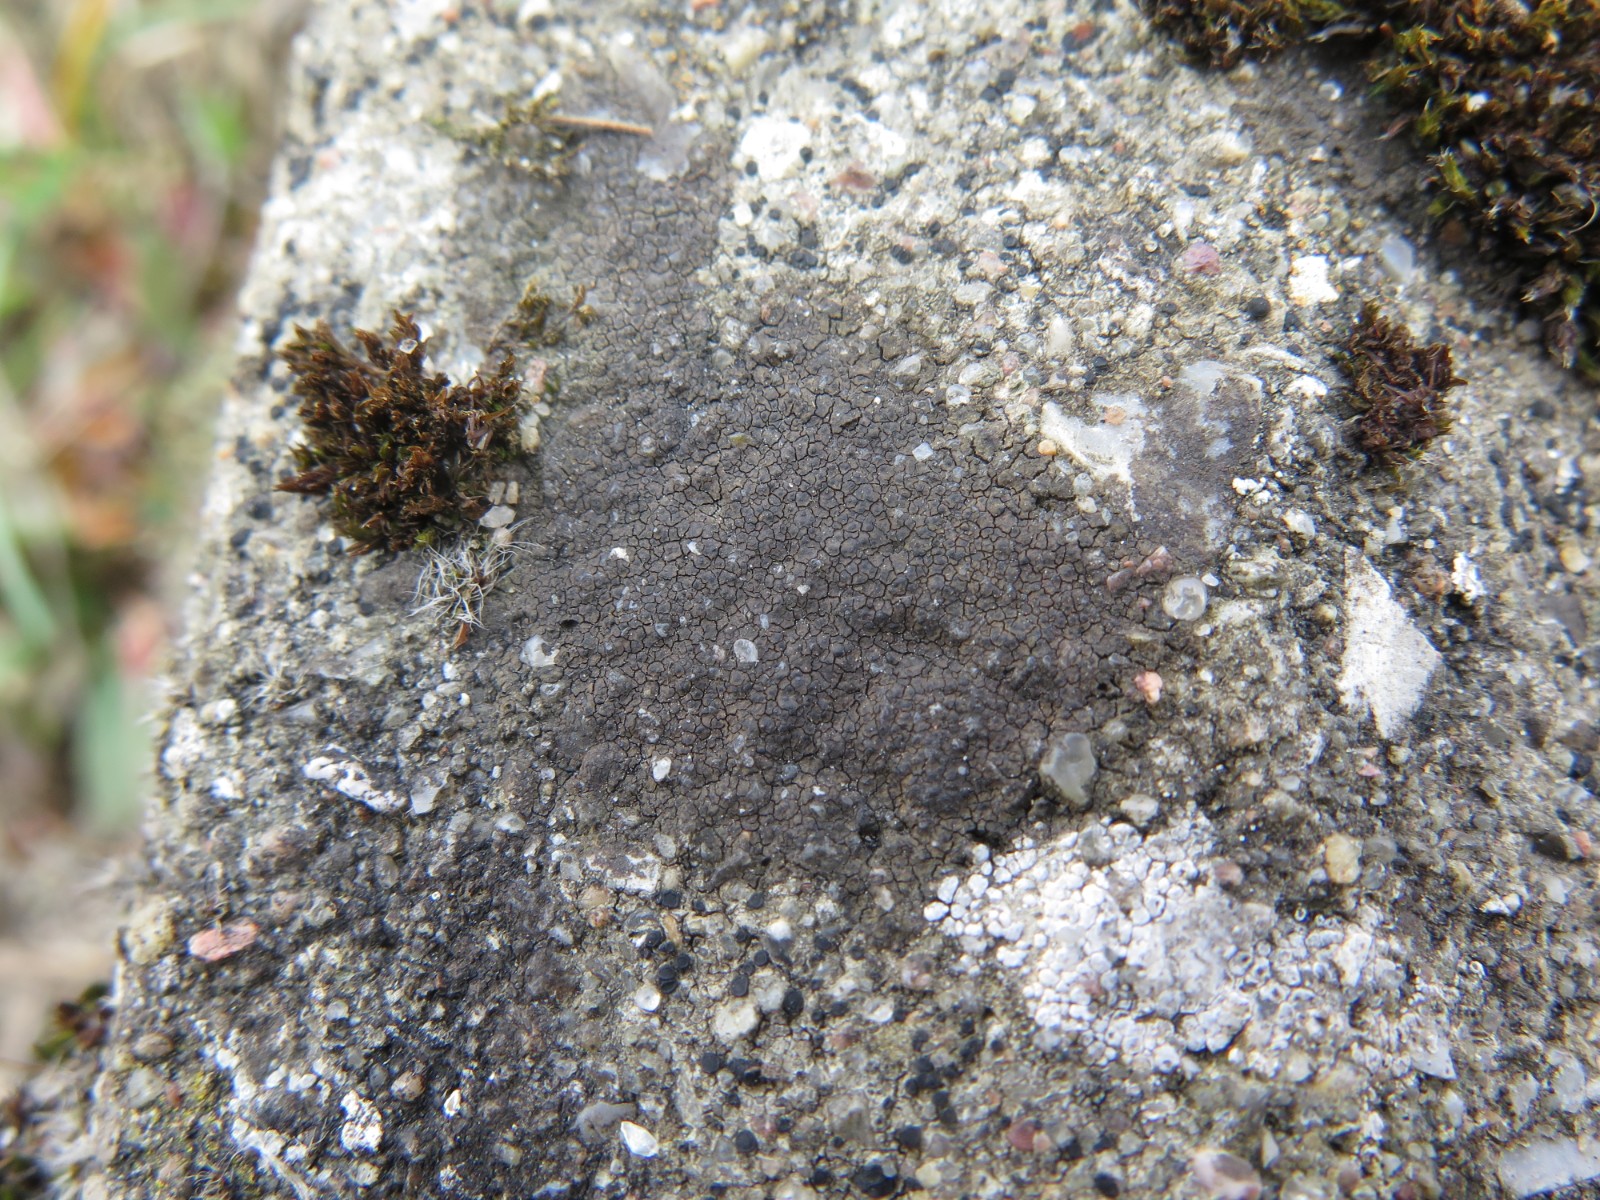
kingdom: Fungi
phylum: Ascomycota
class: Eurotiomycetes
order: Verrucariales
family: Verrucariaceae
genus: Verrucaria
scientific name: Verrucaria nigrescens
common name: sortbrun vortelav
